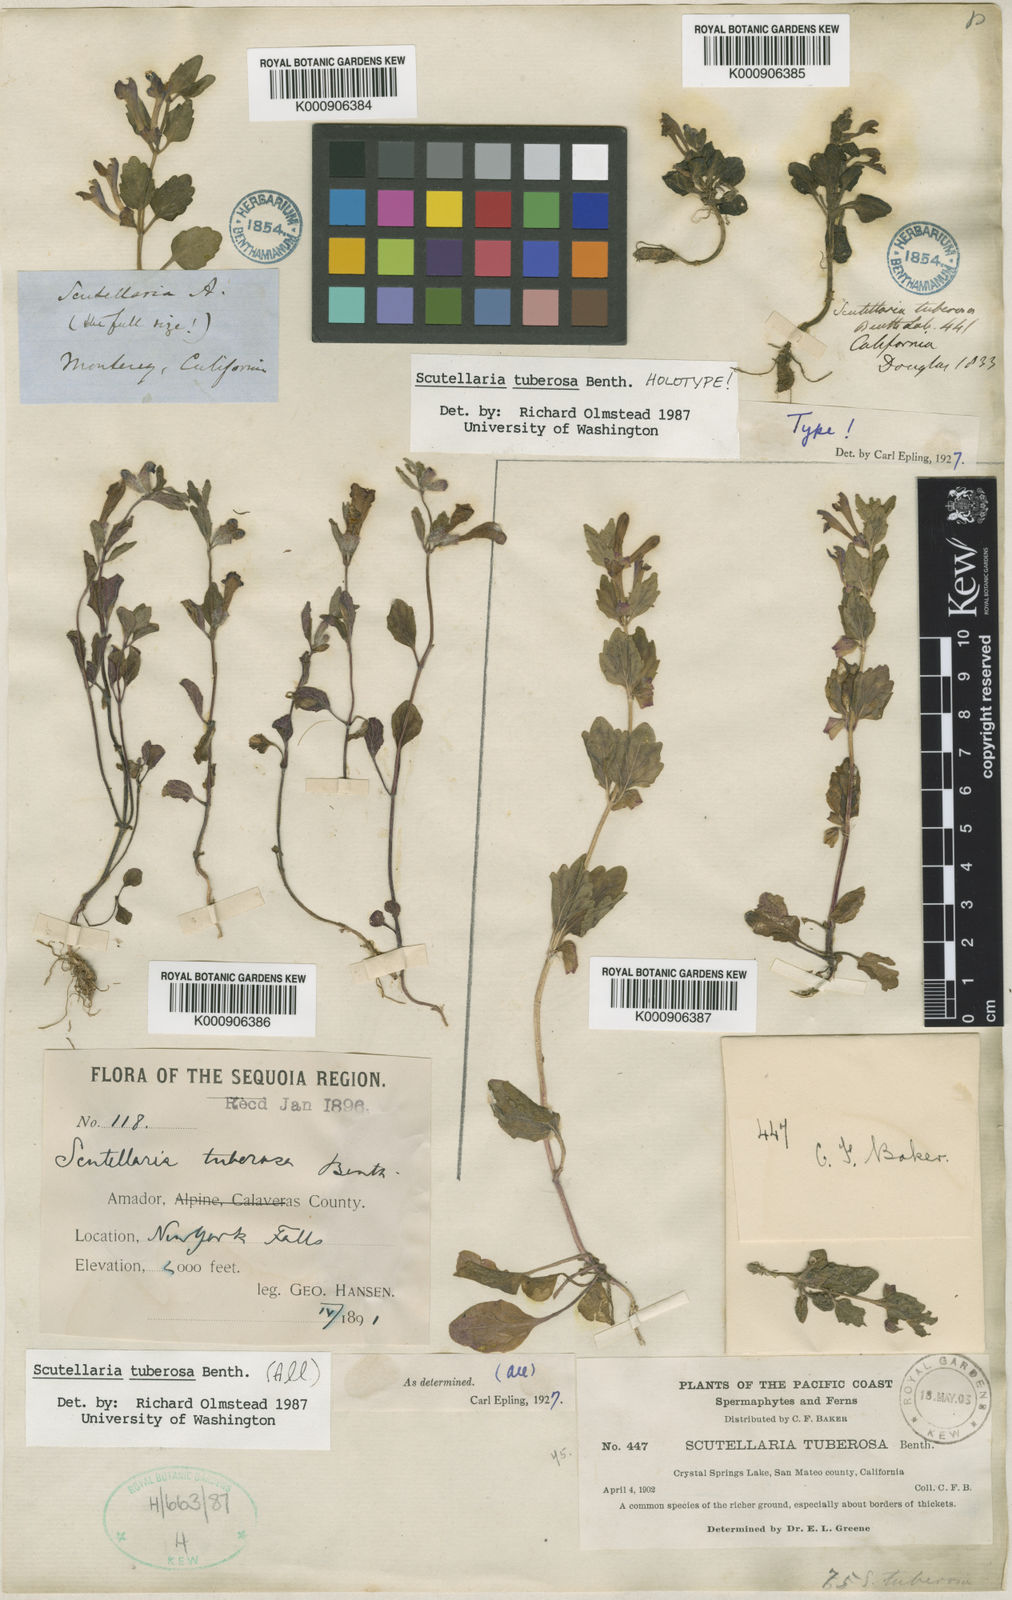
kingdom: Plantae
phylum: Tracheophyta
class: Magnoliopsida
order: Lamiales
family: Lamiaceae
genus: Scutellaria
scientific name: Scutellaria tuberosa
